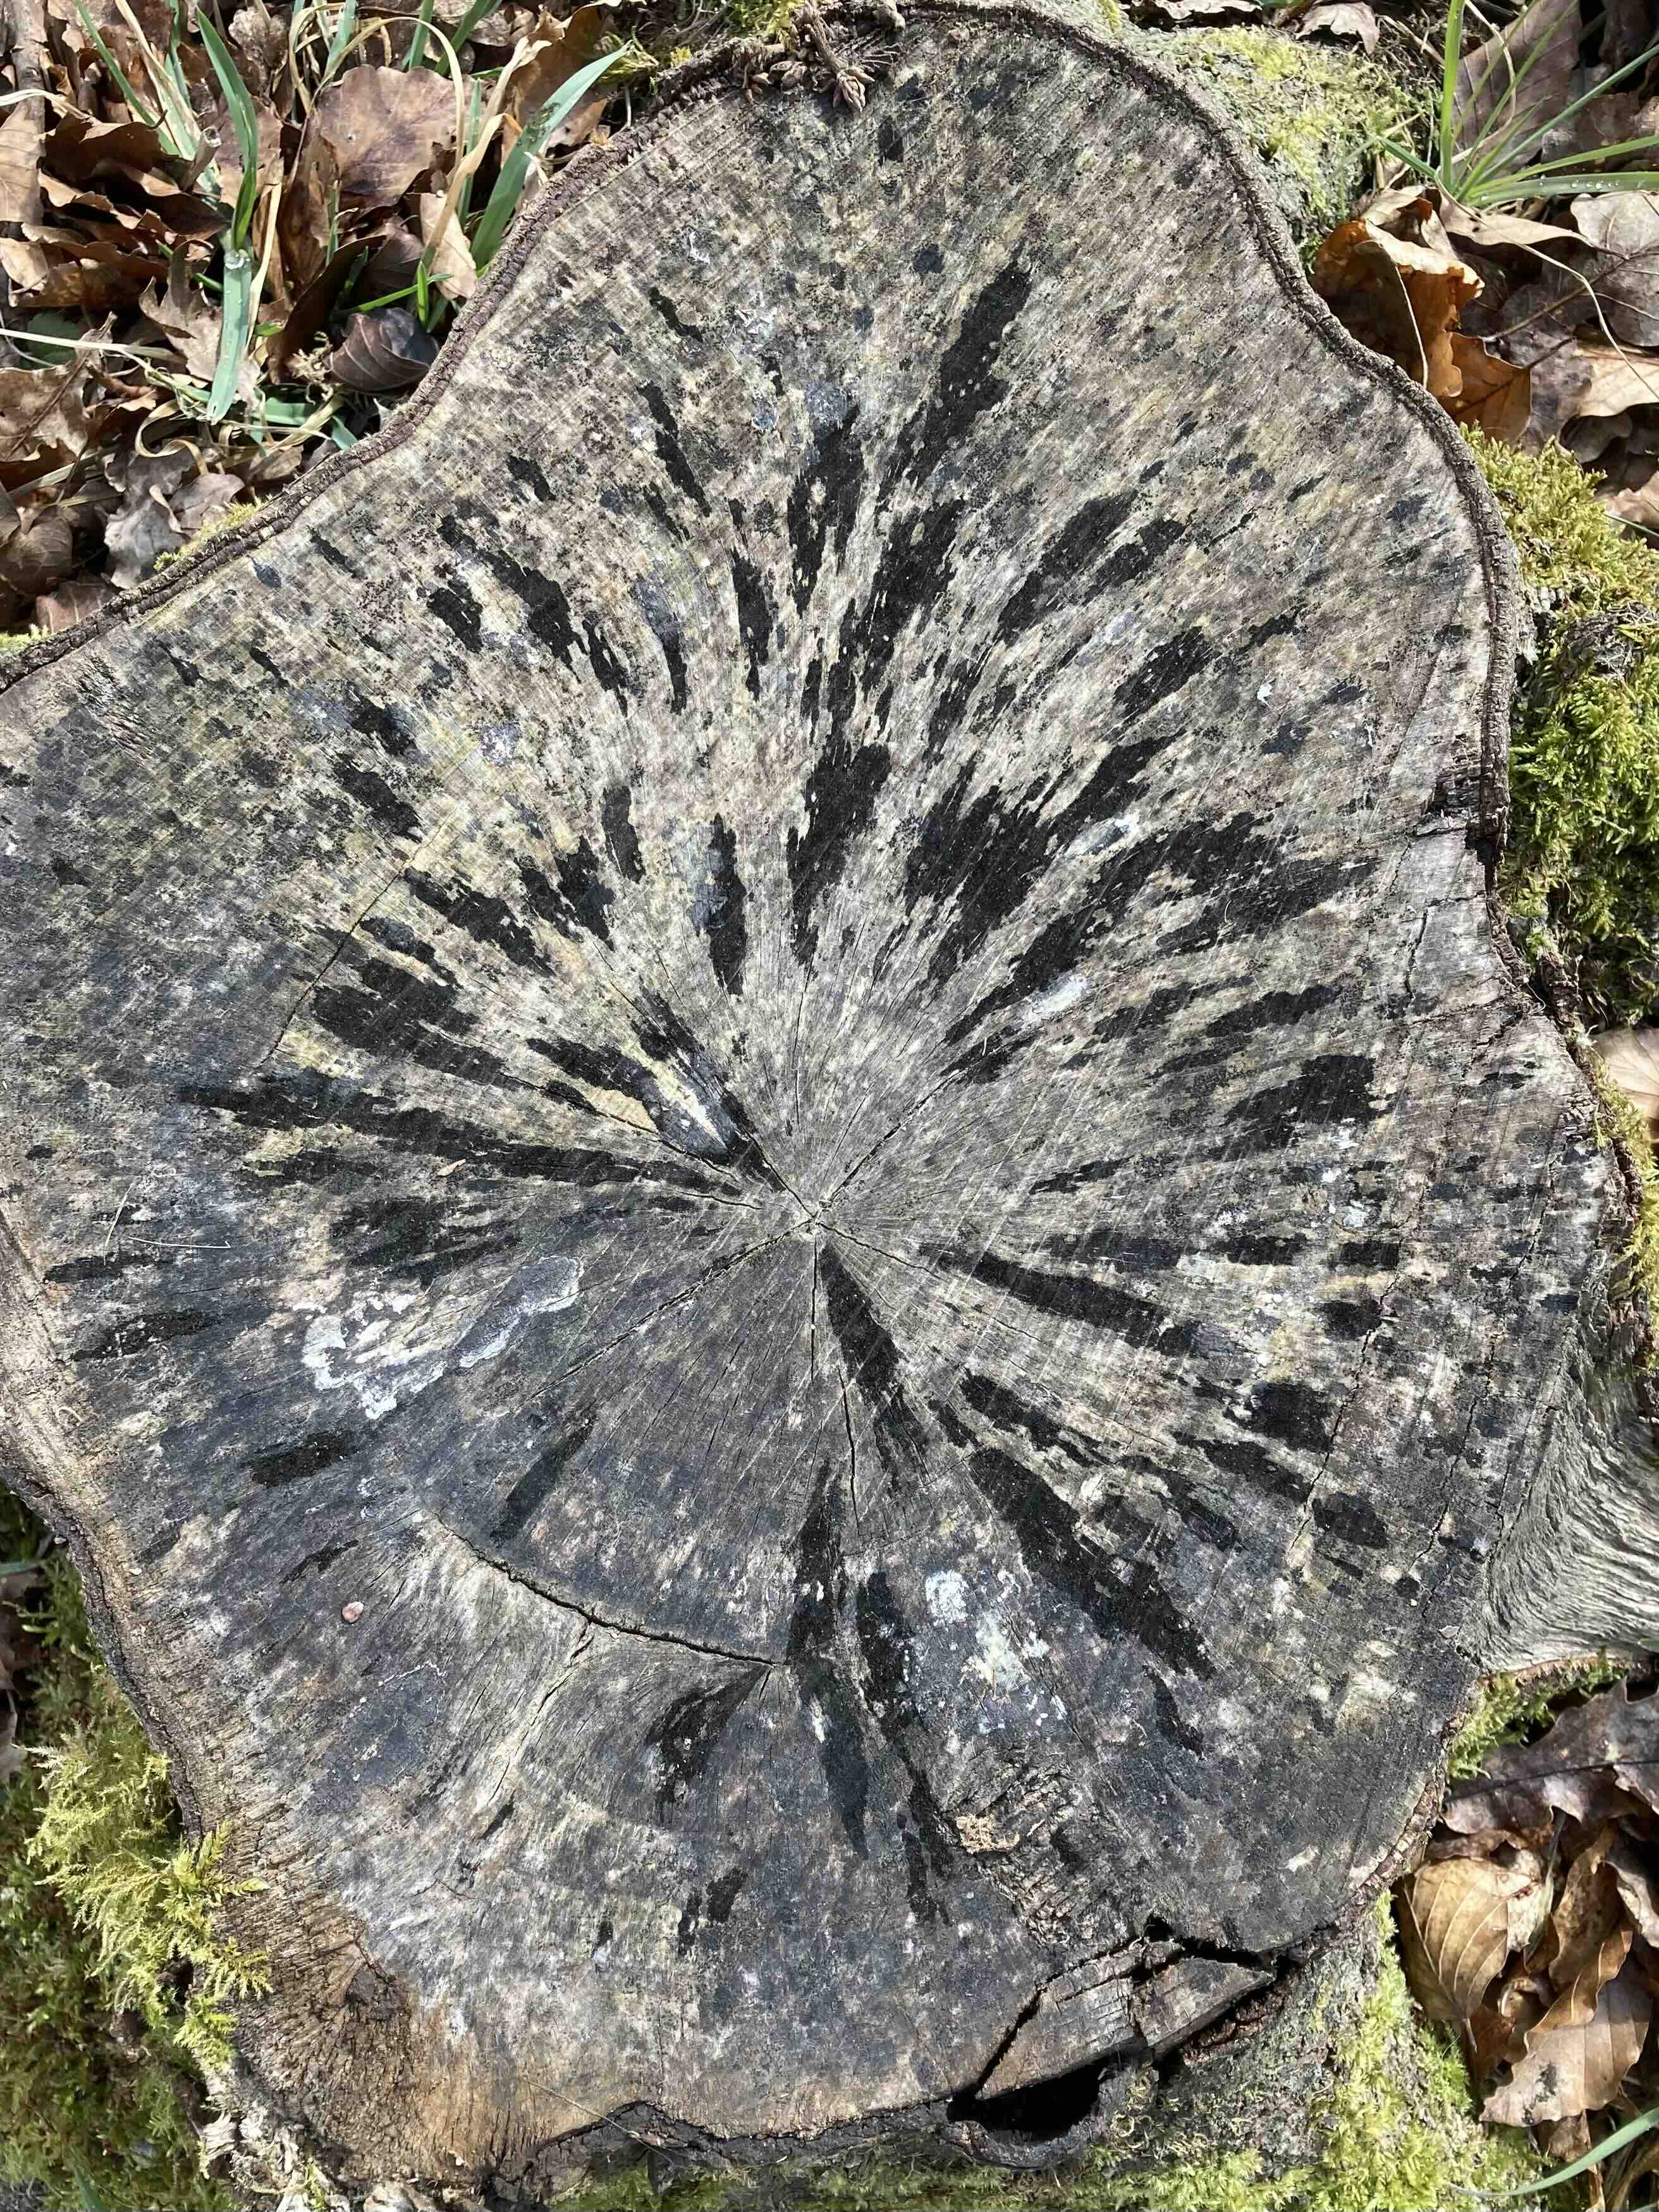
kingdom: Fungi
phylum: Ascomycota
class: Leotiomycetes
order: Helotiales
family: Helotiaceae
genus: Bispora
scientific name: Bispora pallescens
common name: måtte-snitskive
